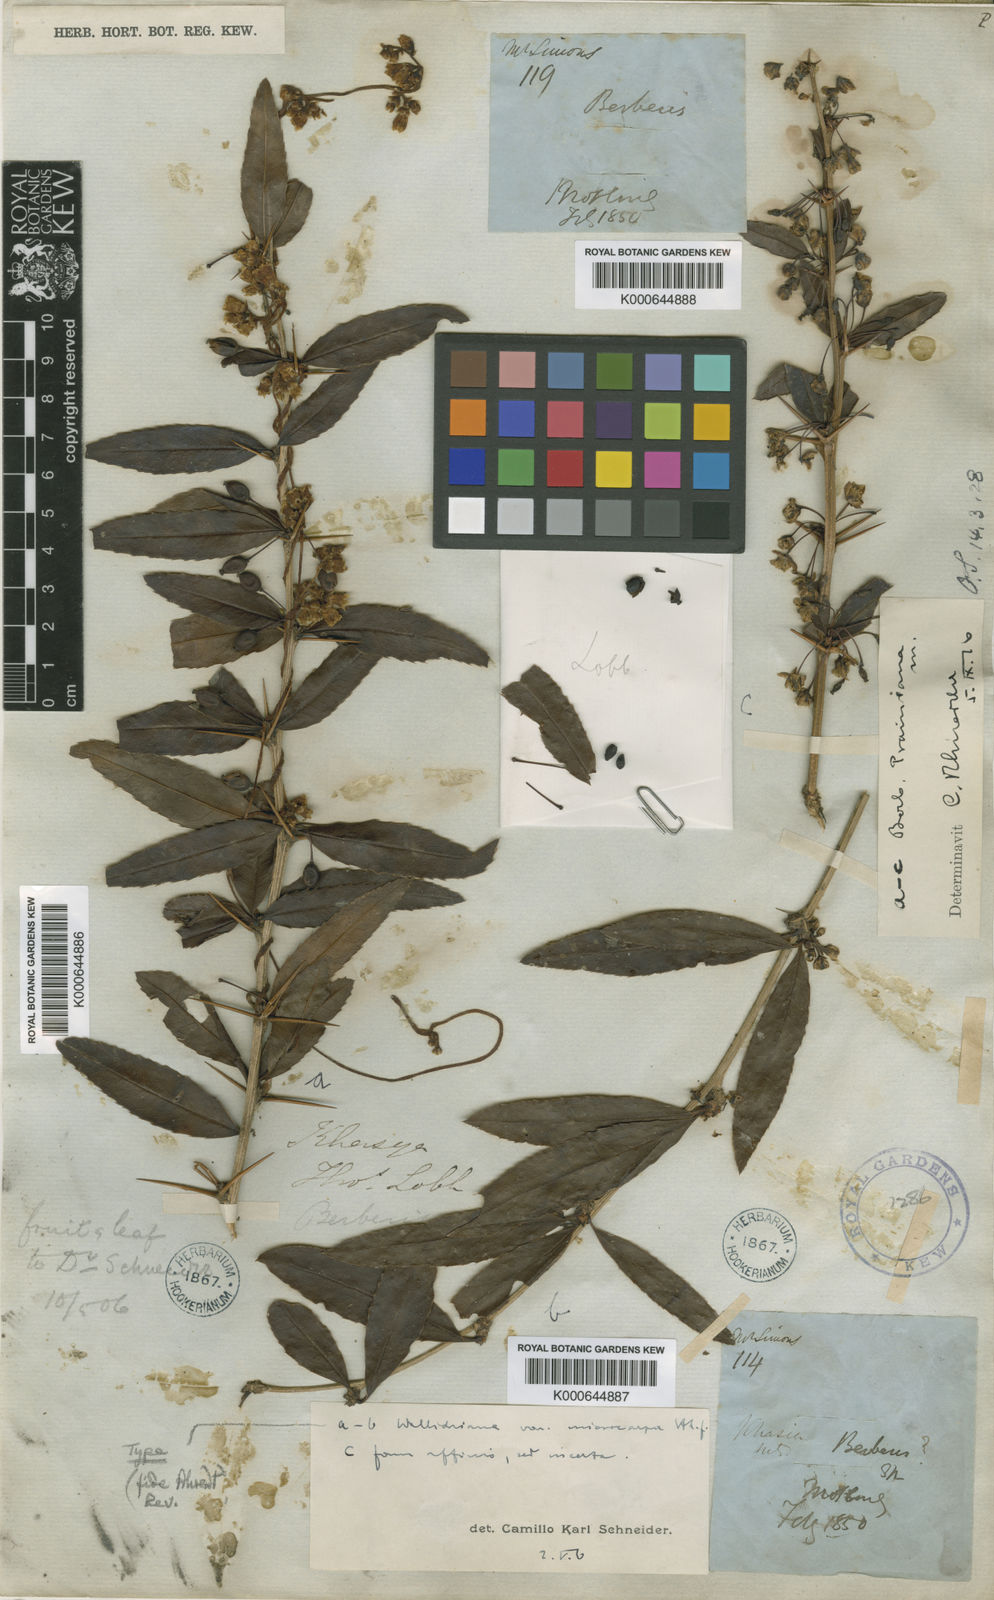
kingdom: Plantae
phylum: Tracheophyta
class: Magnoliopsida
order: Ranunculales
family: Berberidaceae
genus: Berberis
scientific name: Berberis sublevis
